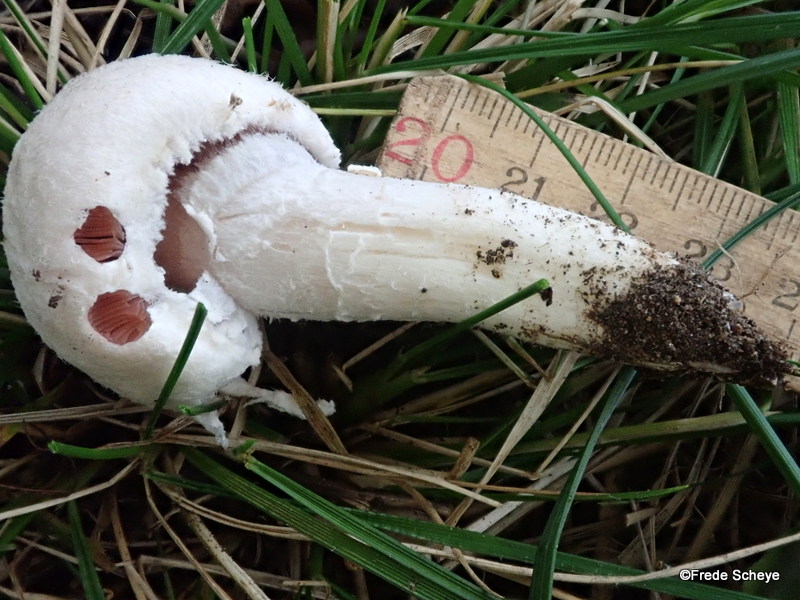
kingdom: Fungi
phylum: Basidiomycota
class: Agaricomycetes
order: Agaricales
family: Agaricaceae
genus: Agaricus
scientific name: Agaricus campestris
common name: mark-champignon
